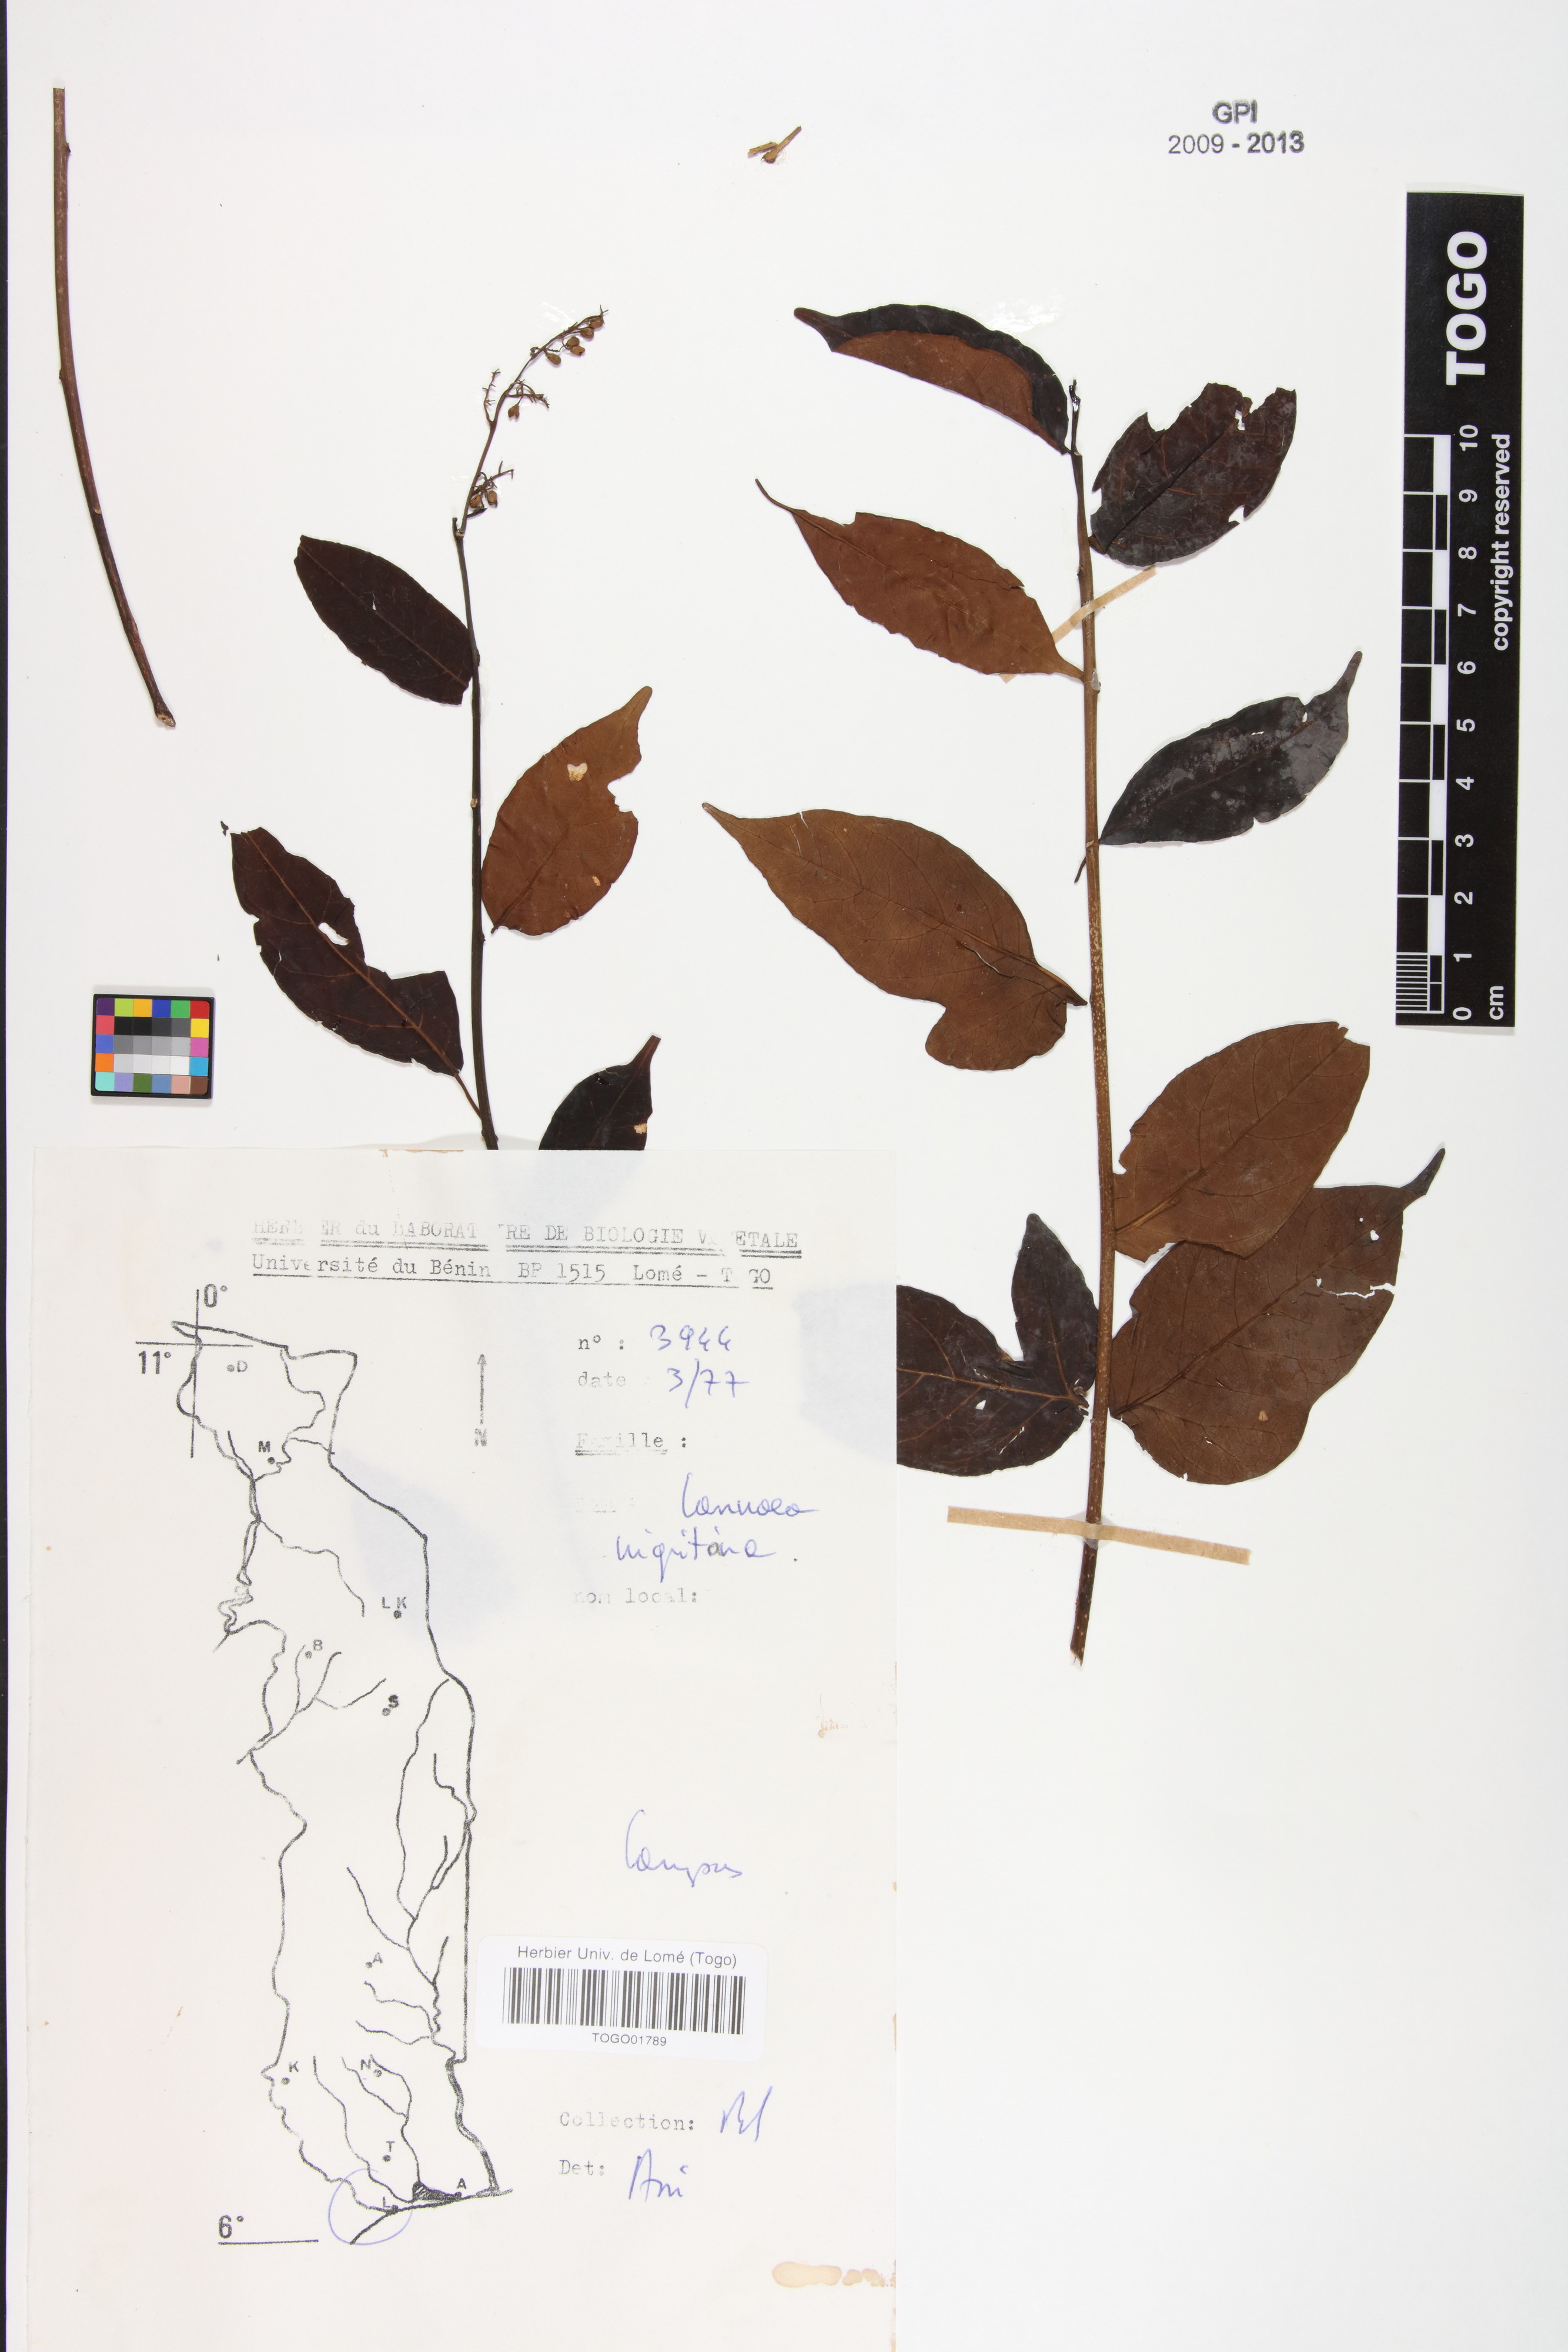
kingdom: Plantae
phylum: Tracheophyta
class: Magnoliopsida
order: Sapindales
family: Anacardiaceae
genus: Lannea
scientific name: Lannea nigritana
